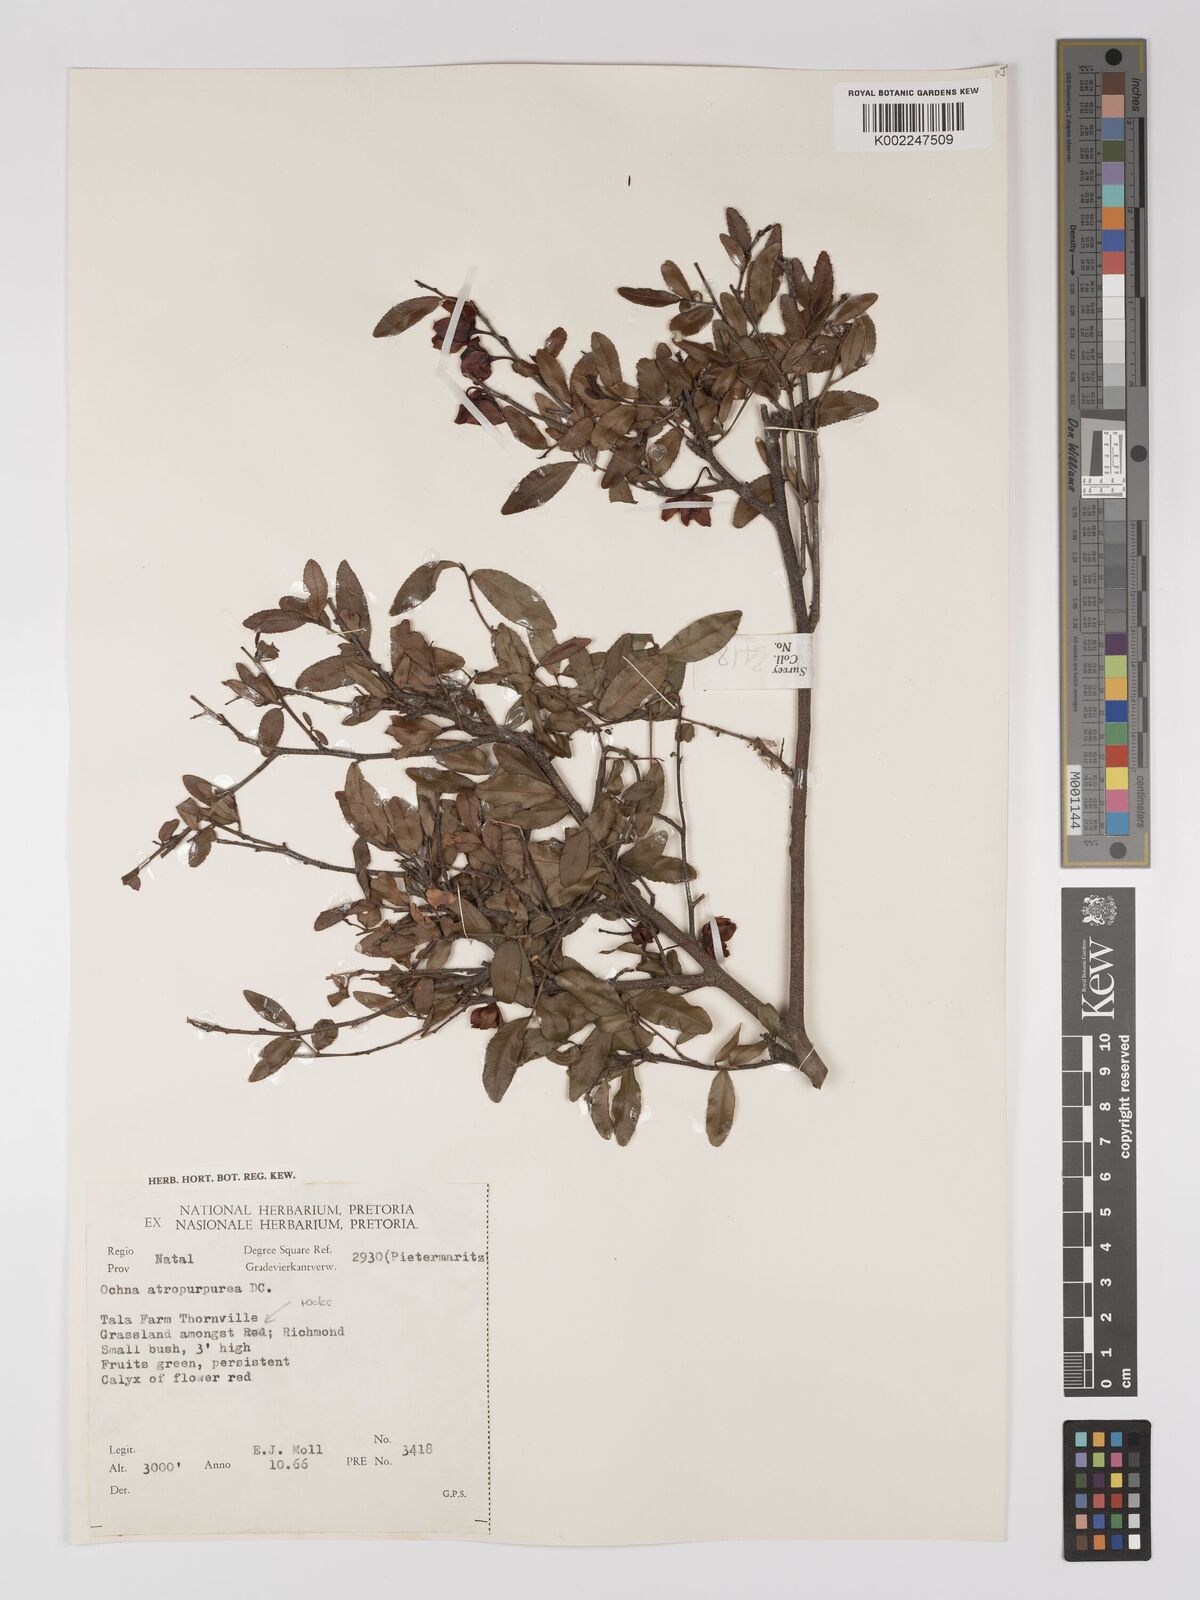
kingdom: Plantae
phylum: Tracheophyta
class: Magnoliopsida
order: Malpighiales
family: Ochnaceae
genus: Ochna
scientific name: Ochna serrulata
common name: Mickey mouse plant
